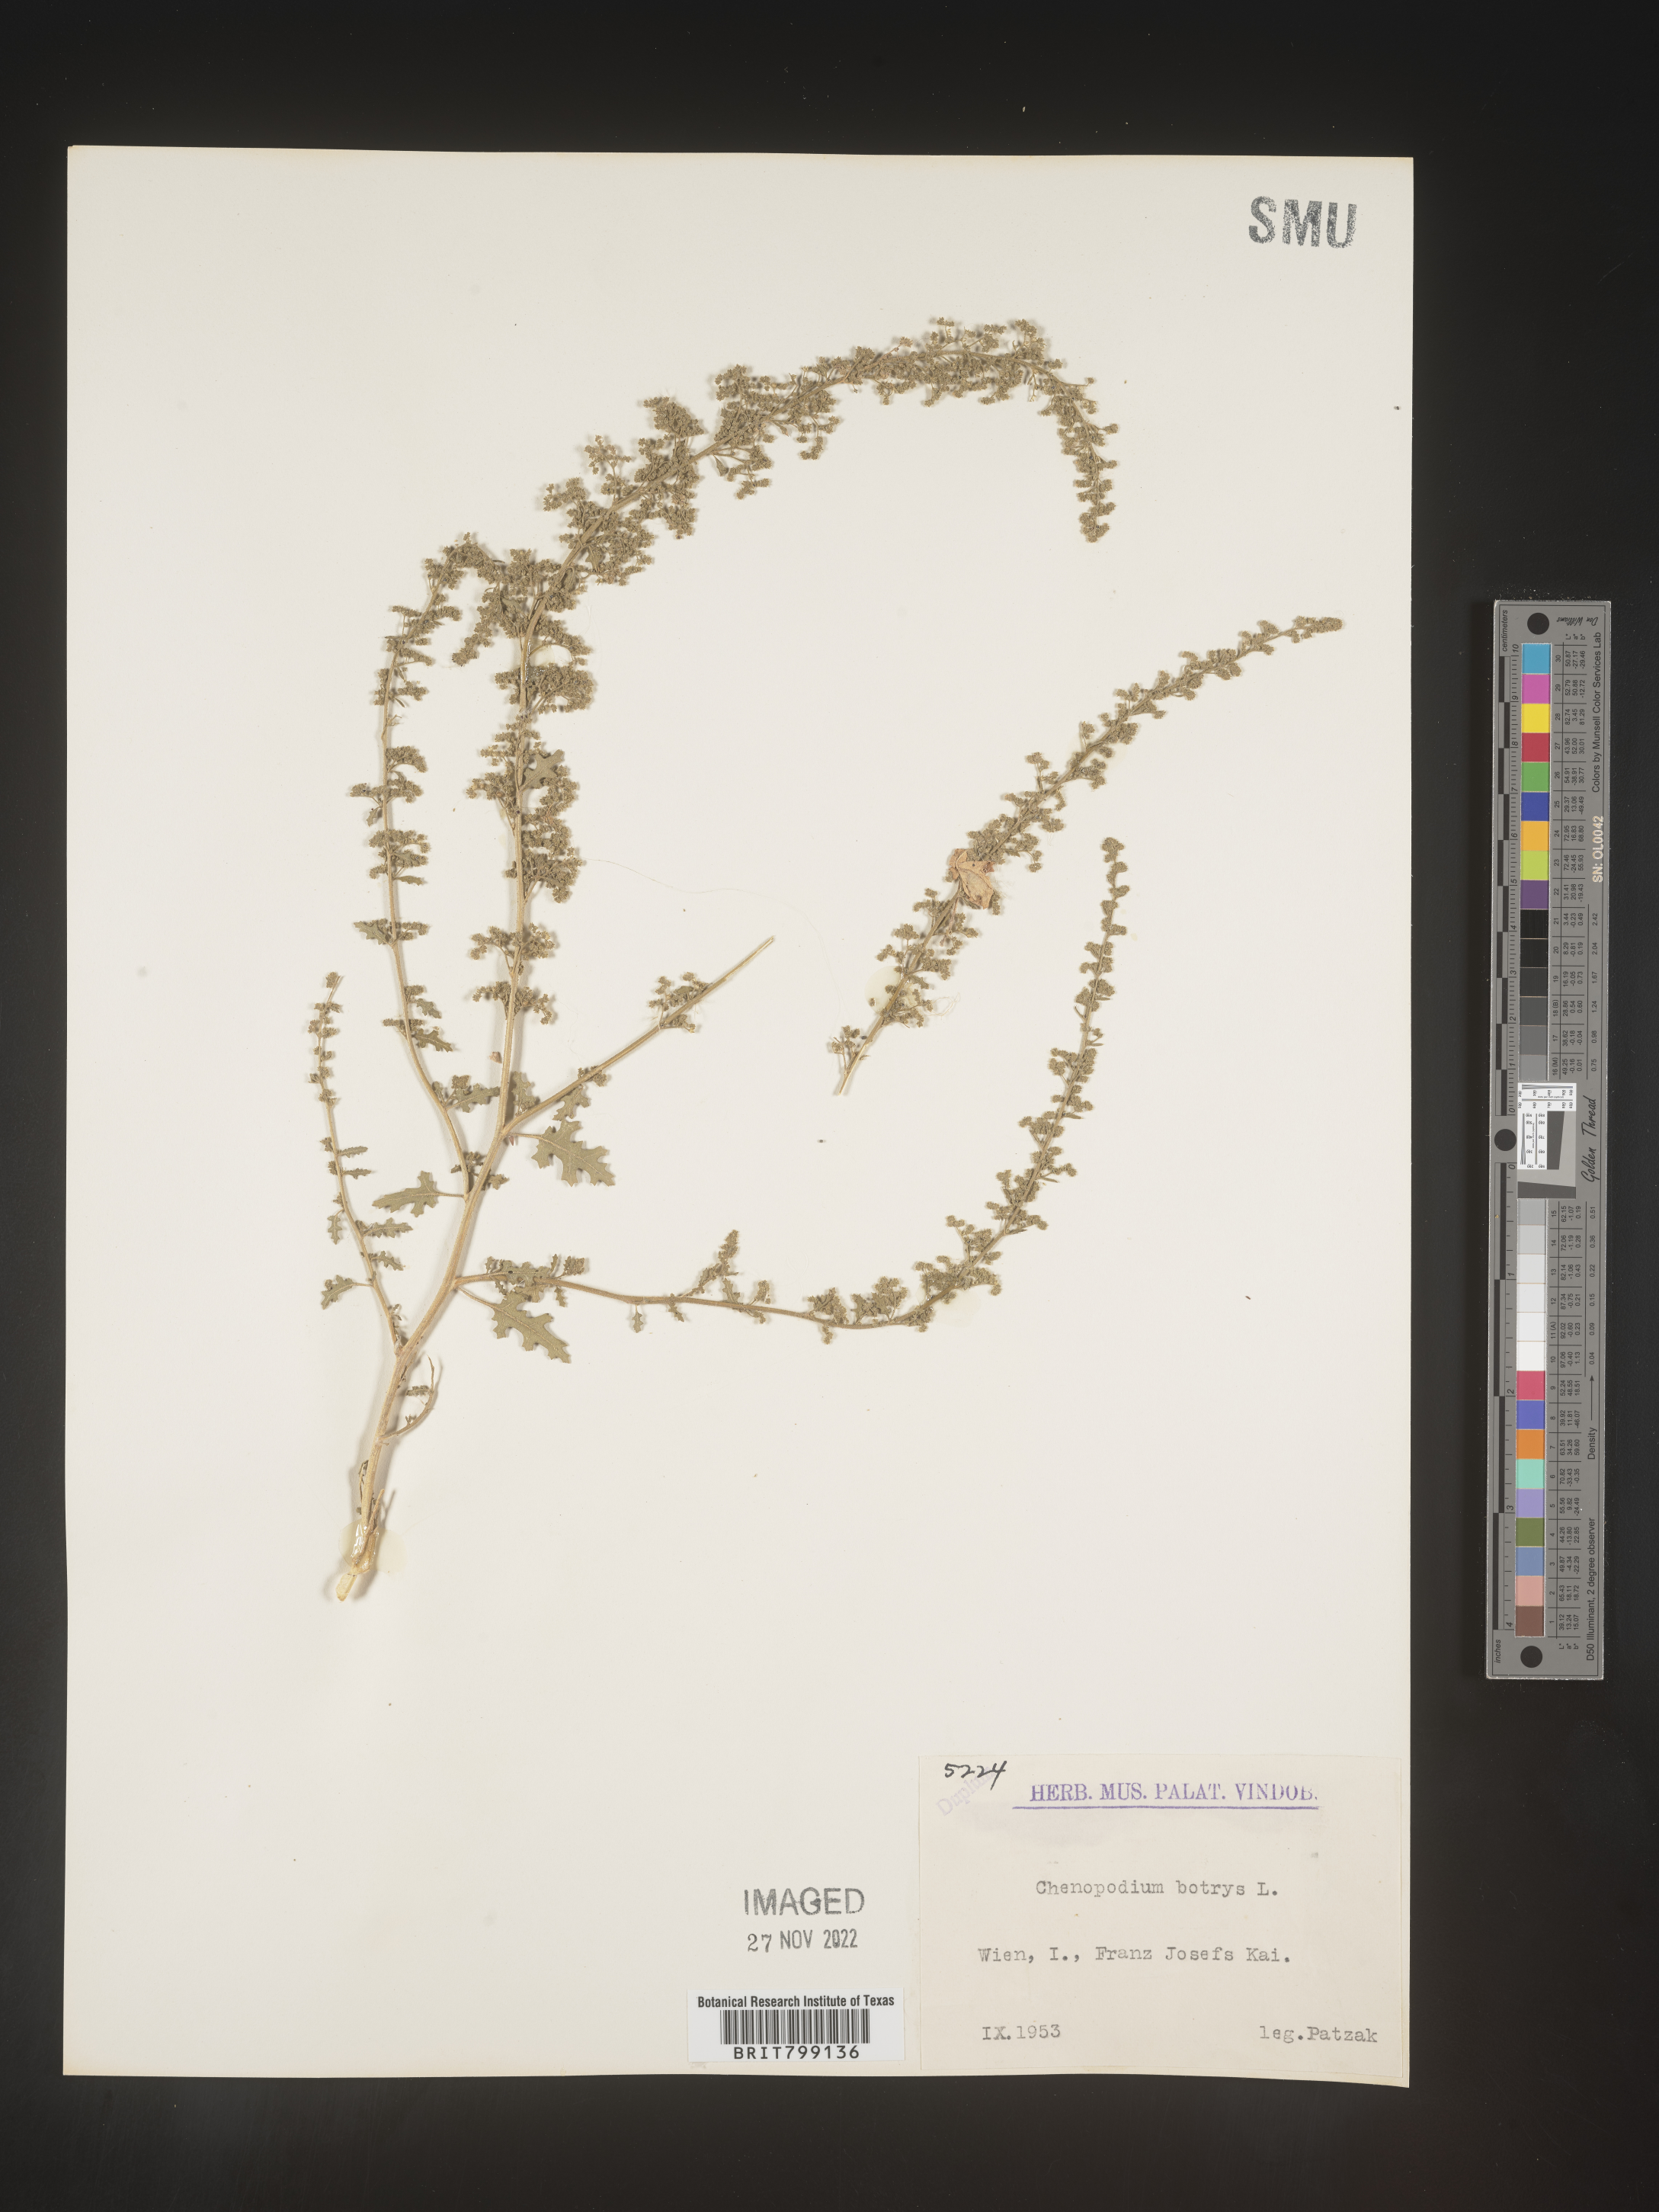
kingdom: Plantae
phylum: Tracheophyta
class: Magnoliopsida
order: Caryophyllales
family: Amaranthaceae
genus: Dysphania
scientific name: Dysphania botrys
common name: Feather-geranium
